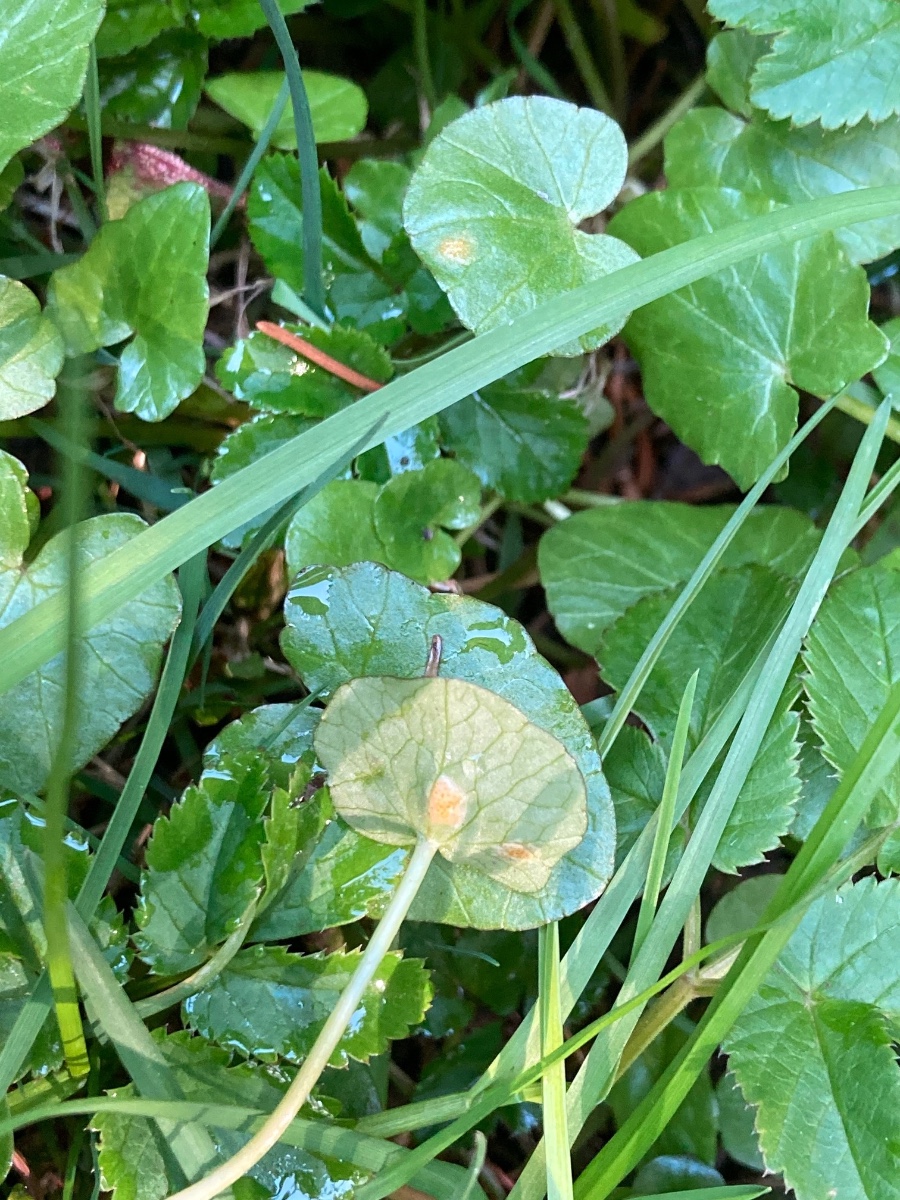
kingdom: Fungi
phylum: Basidiomycota
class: Pucciniomycetes
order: Pucciniales
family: Pucciniaceae
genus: Uromyces
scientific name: Uromyces dactylidis
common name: ranunkel-encellerust
